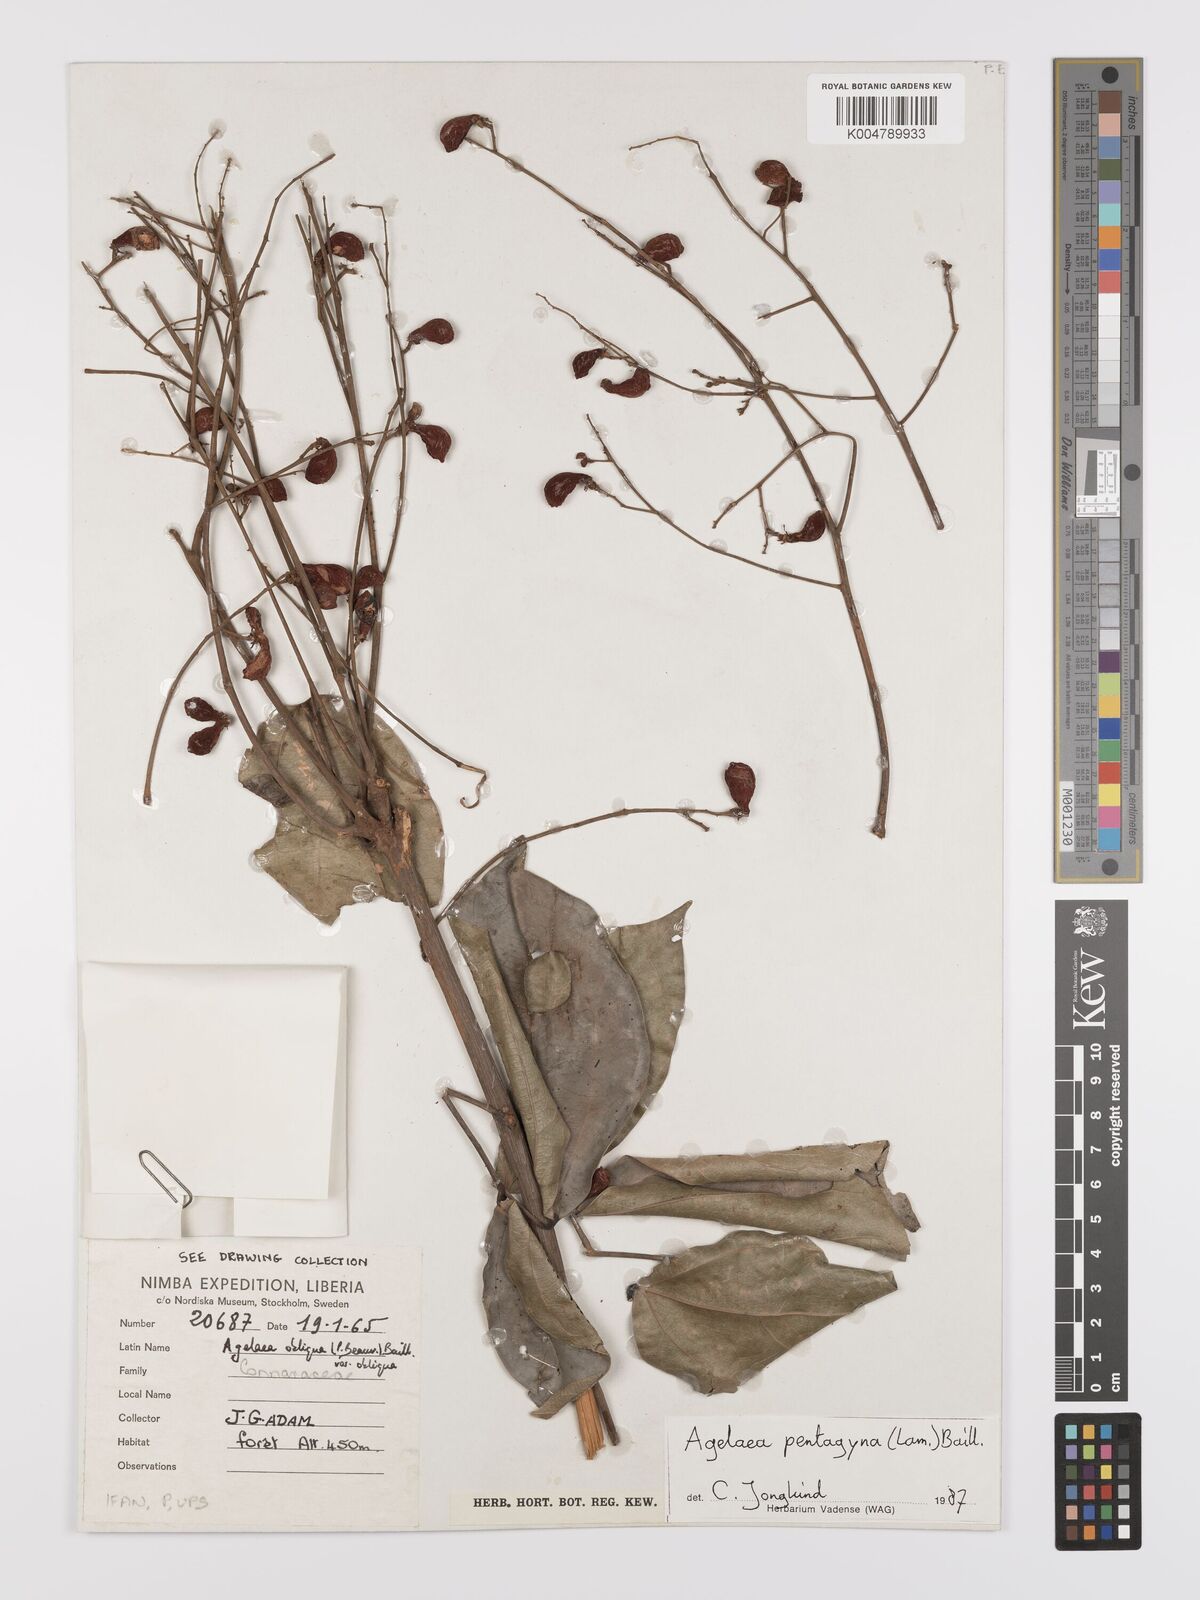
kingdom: Plantae
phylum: Tracheophyta
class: Magnoliopsida
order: Oxalidales
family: Connaraceae
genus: Agelaea
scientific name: Agelaea pentagyna
